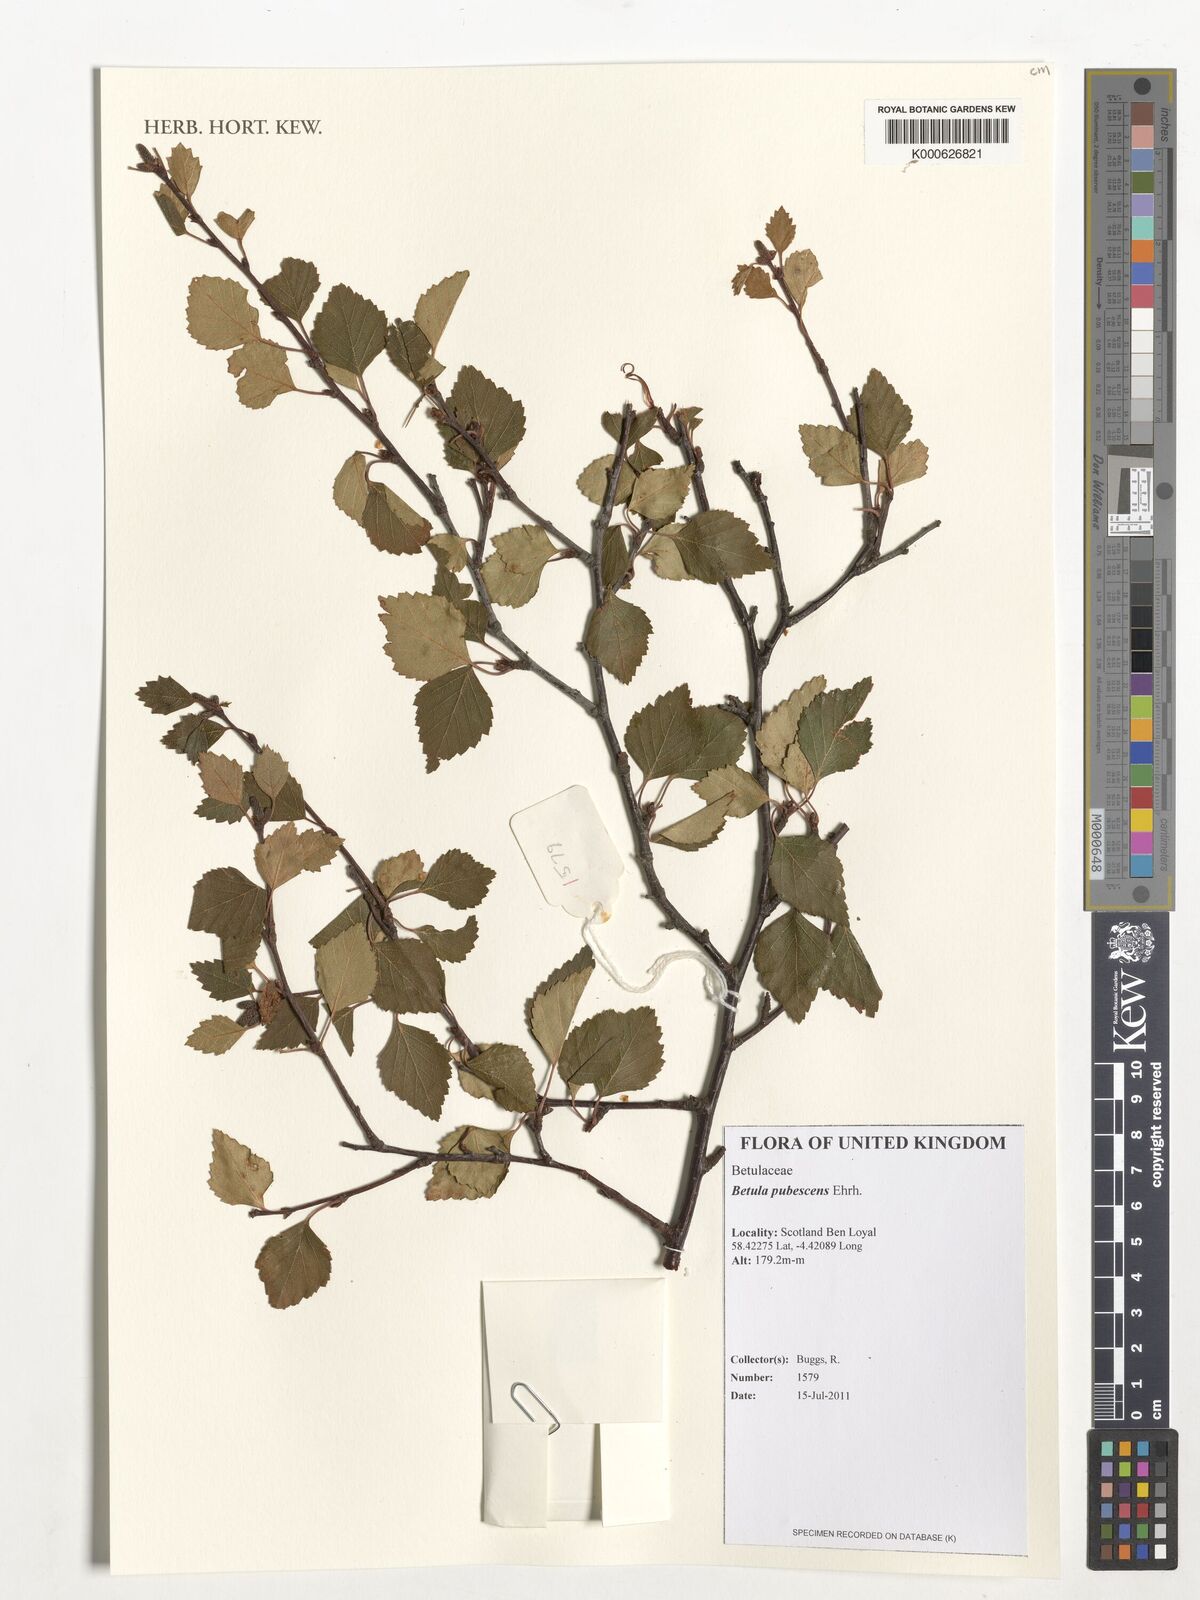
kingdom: Plantae
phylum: Tracheophyta
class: Magnoliopsida
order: Fagales
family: Betulaceae
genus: Betula
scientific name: Betula pubescens
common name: Downy birch
